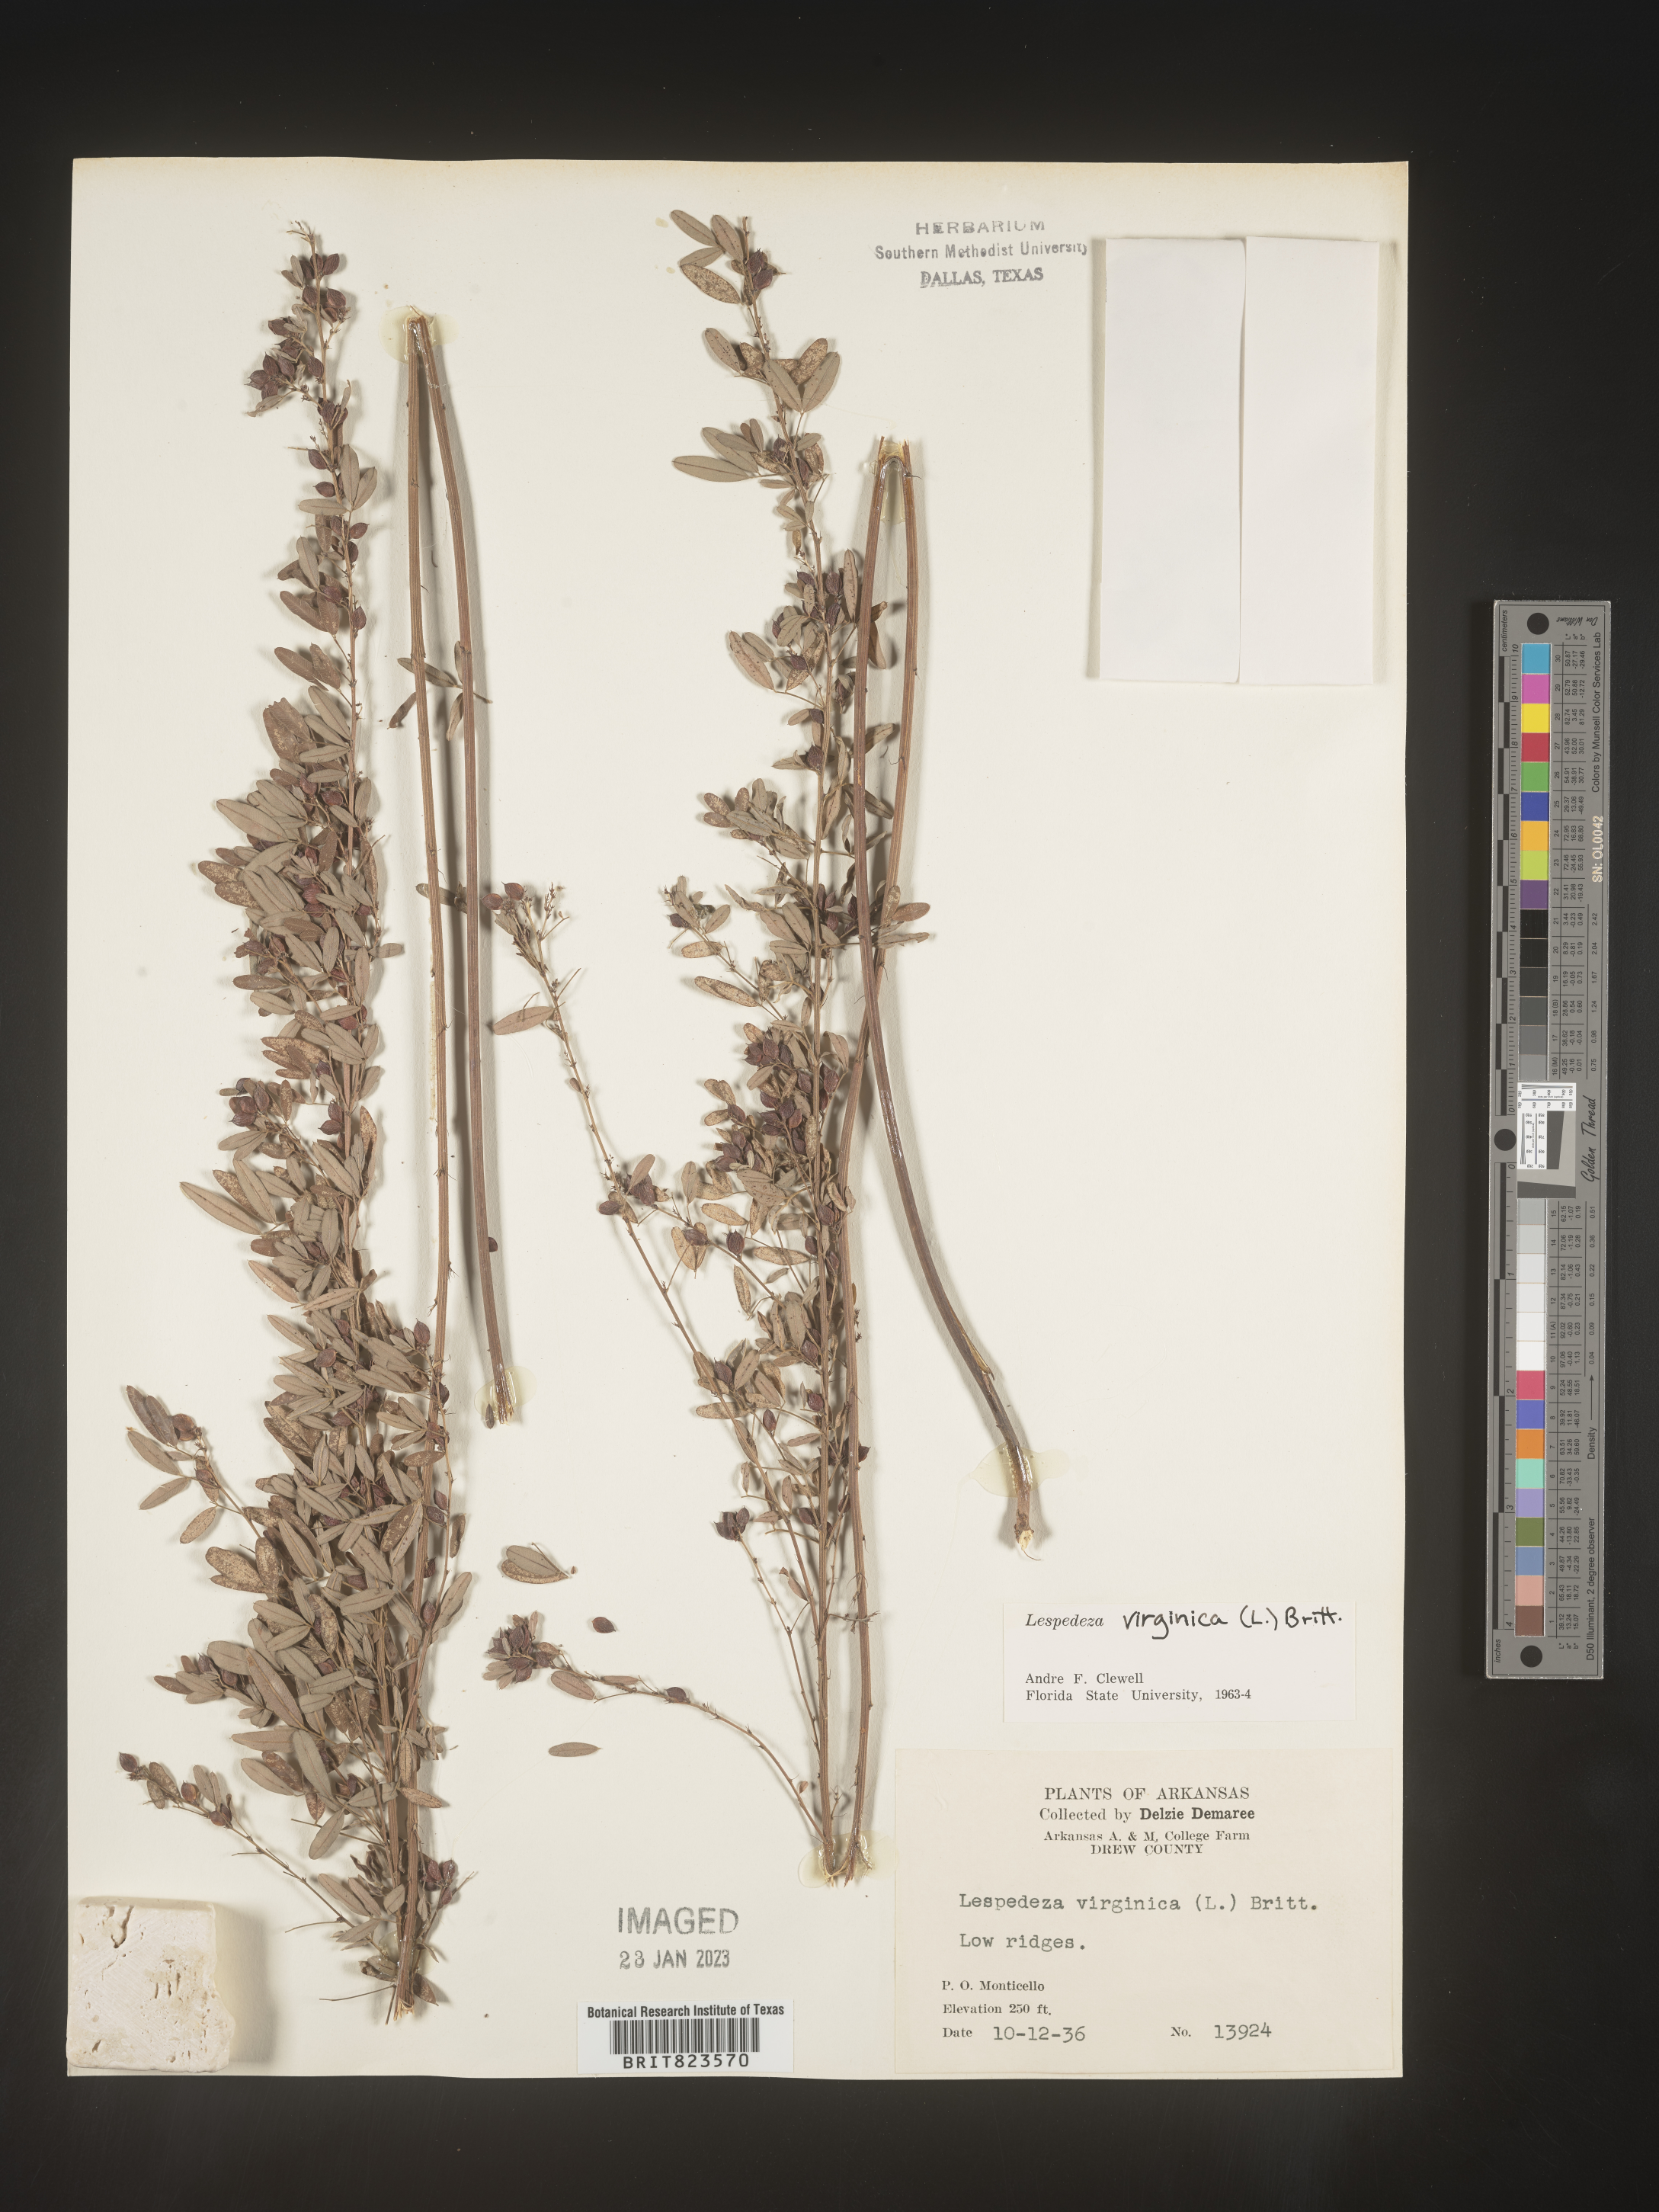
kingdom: Plantae
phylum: Tracheophyta
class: Magnoliopsida
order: Fabales
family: Fabaceae
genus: Lespedeza
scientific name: Lespedeza virginica
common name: Slender bush-clover
